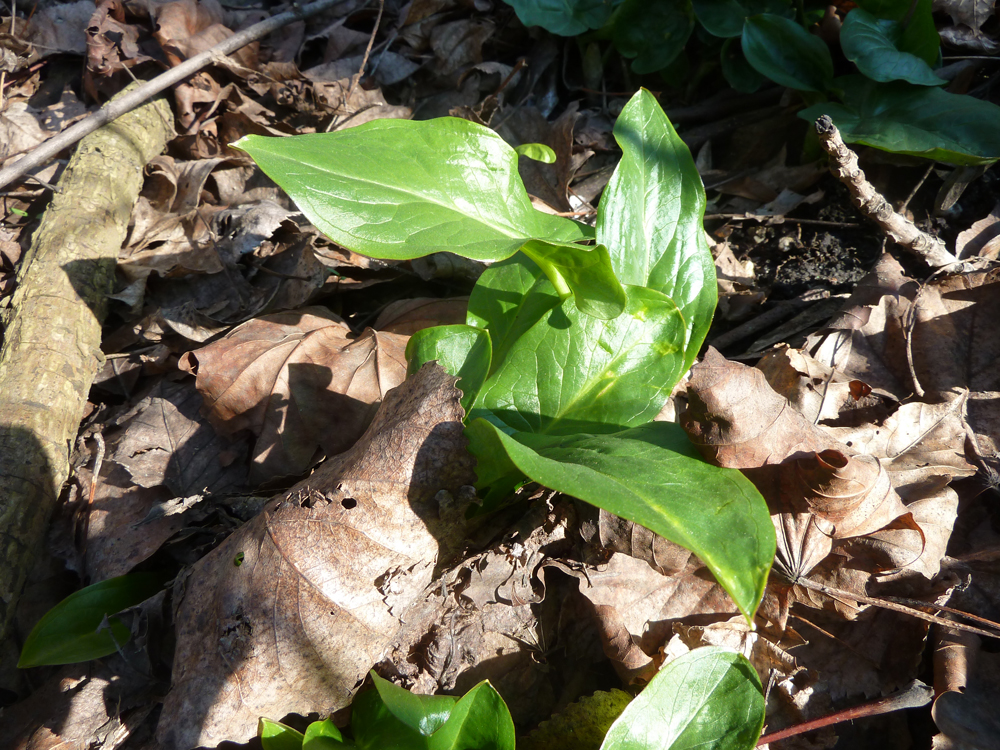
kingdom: Plantae
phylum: Tracheophyta
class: Liliopsida
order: Alismatales
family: Araceae
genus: Arum
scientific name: Arum maculatum
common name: Lords-and-ladies
